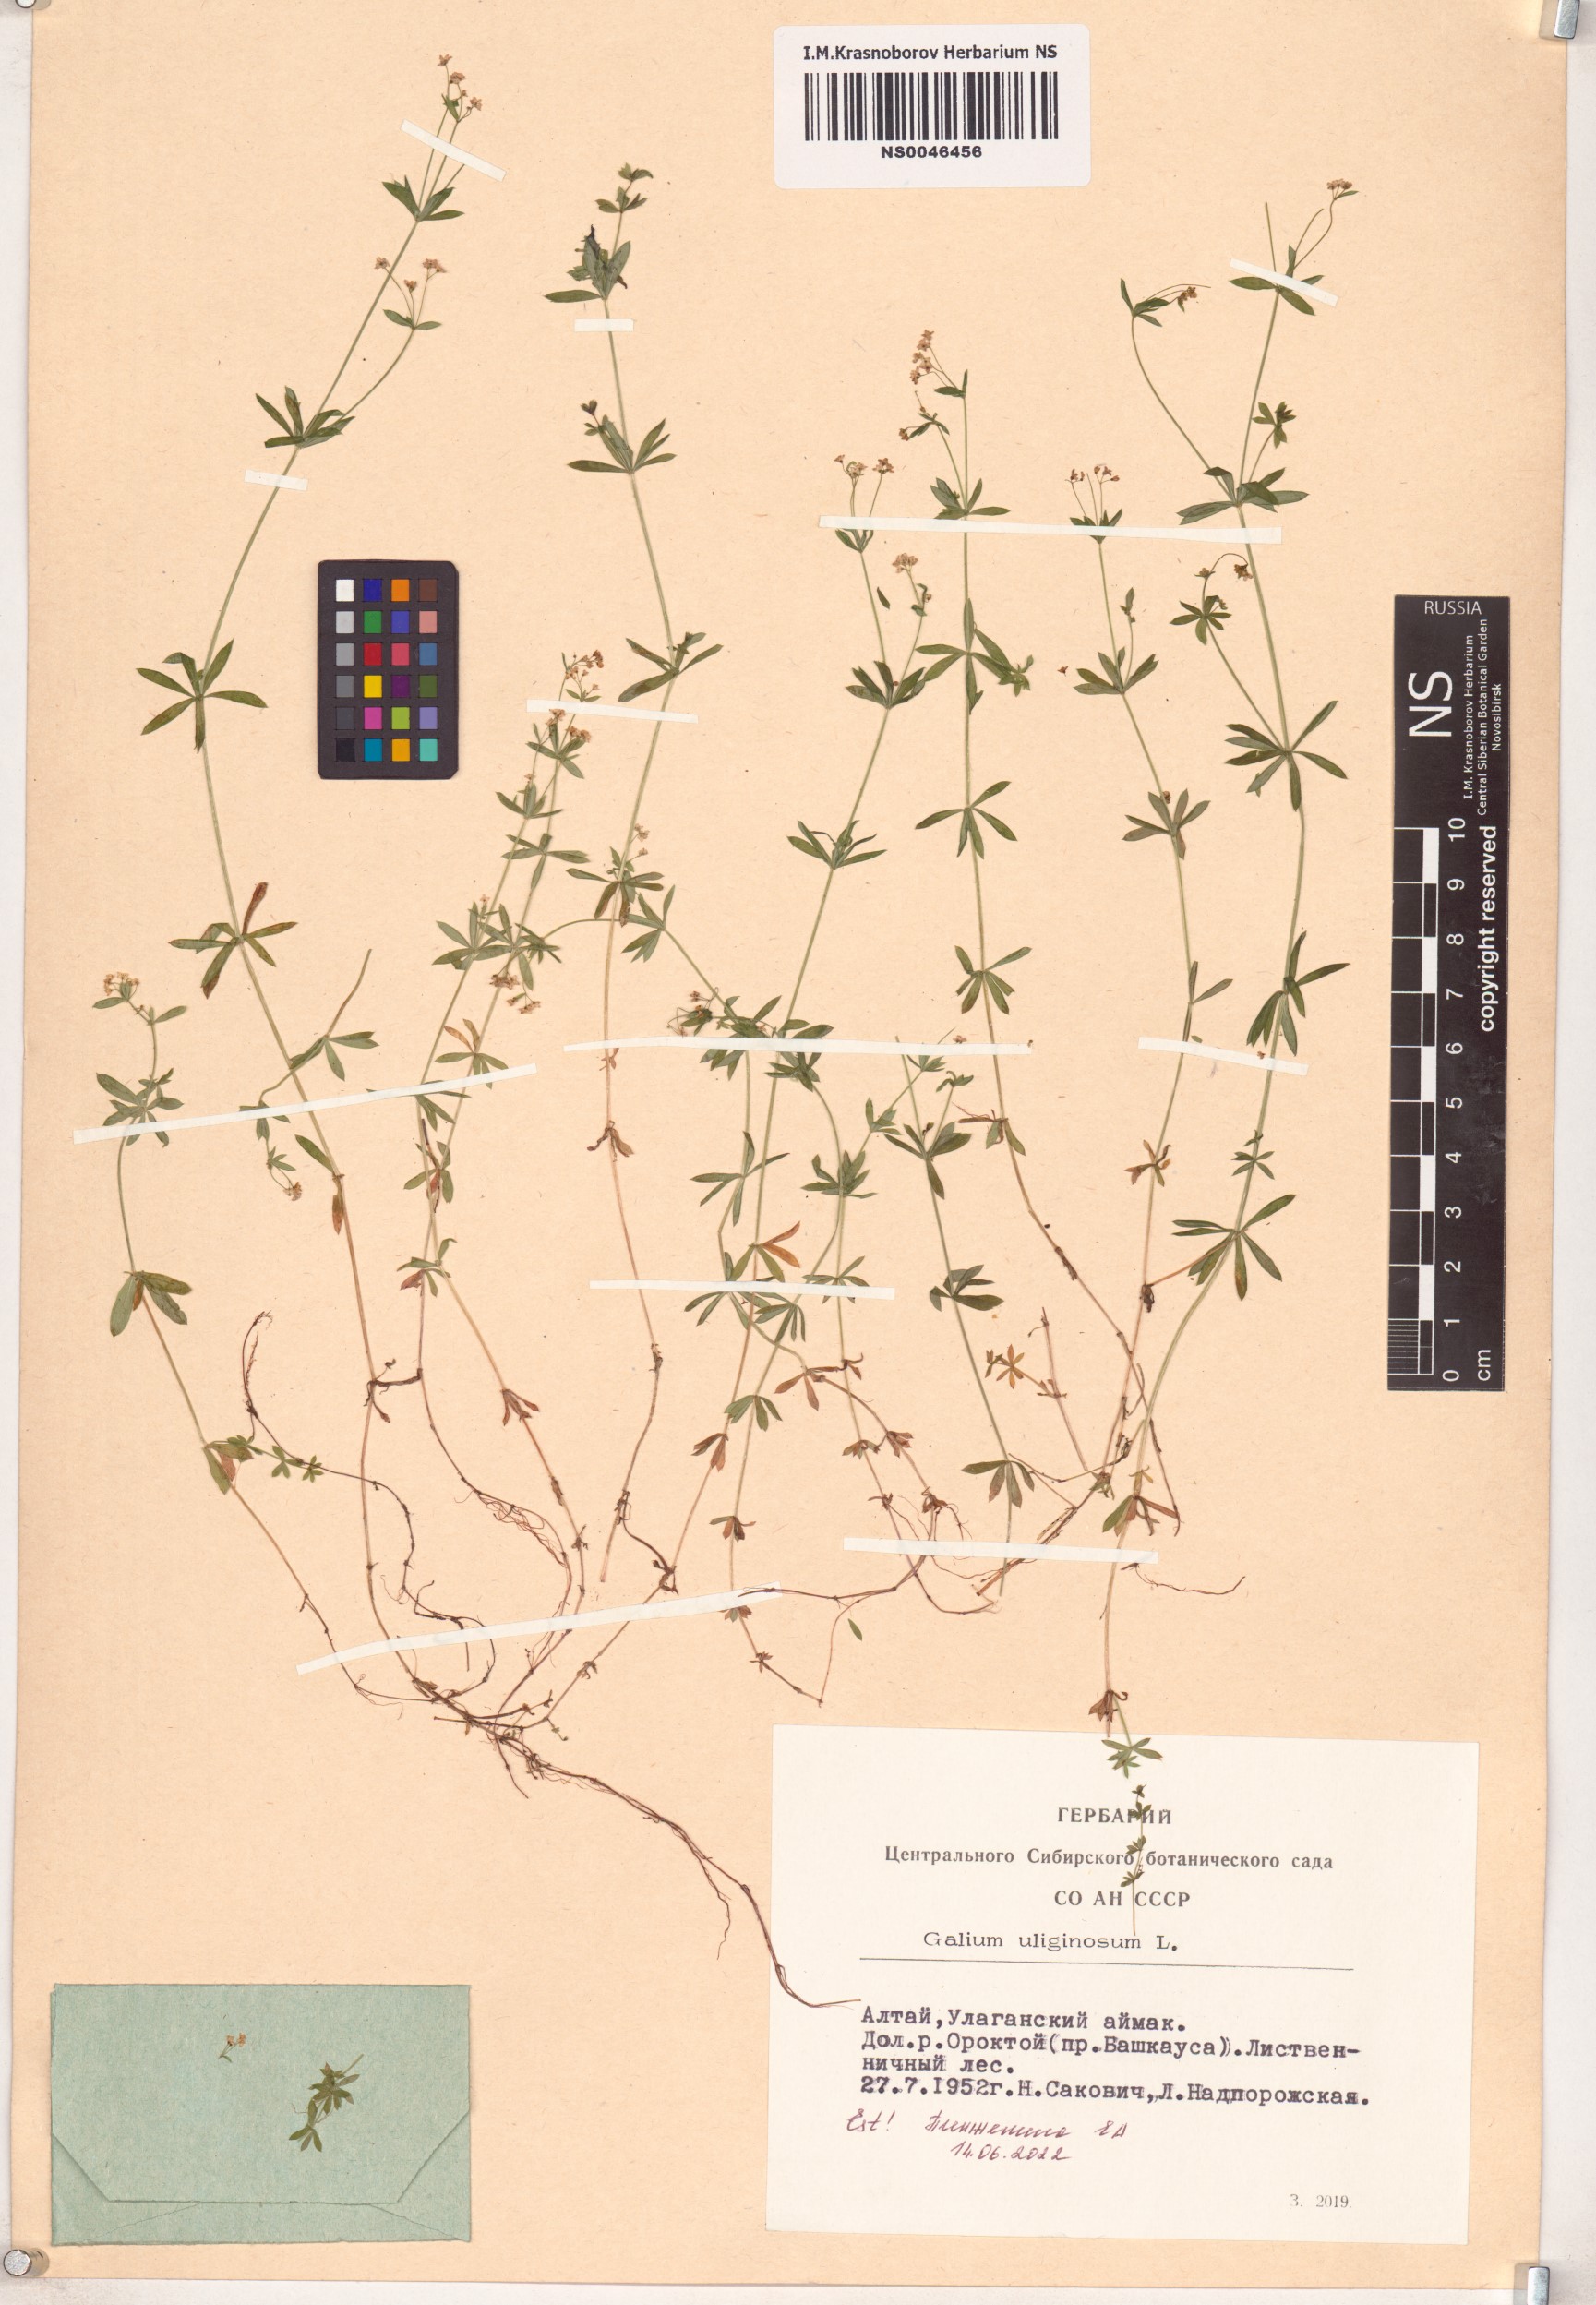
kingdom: Plantae
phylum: Tracheophyta
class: Magnoliopsida
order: Gentianales
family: Rubiaceae
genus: Galium
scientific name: Galium uliginosum
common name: Fen bedstraw
